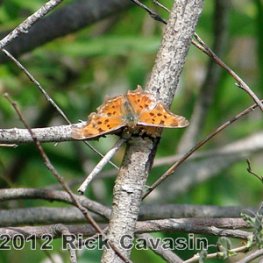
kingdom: Animalia
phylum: Arthropoda
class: Insecta
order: Lepidoptera
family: Nymphalidae
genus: Polygonia
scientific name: Polygonia comma
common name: Eastern Comma
